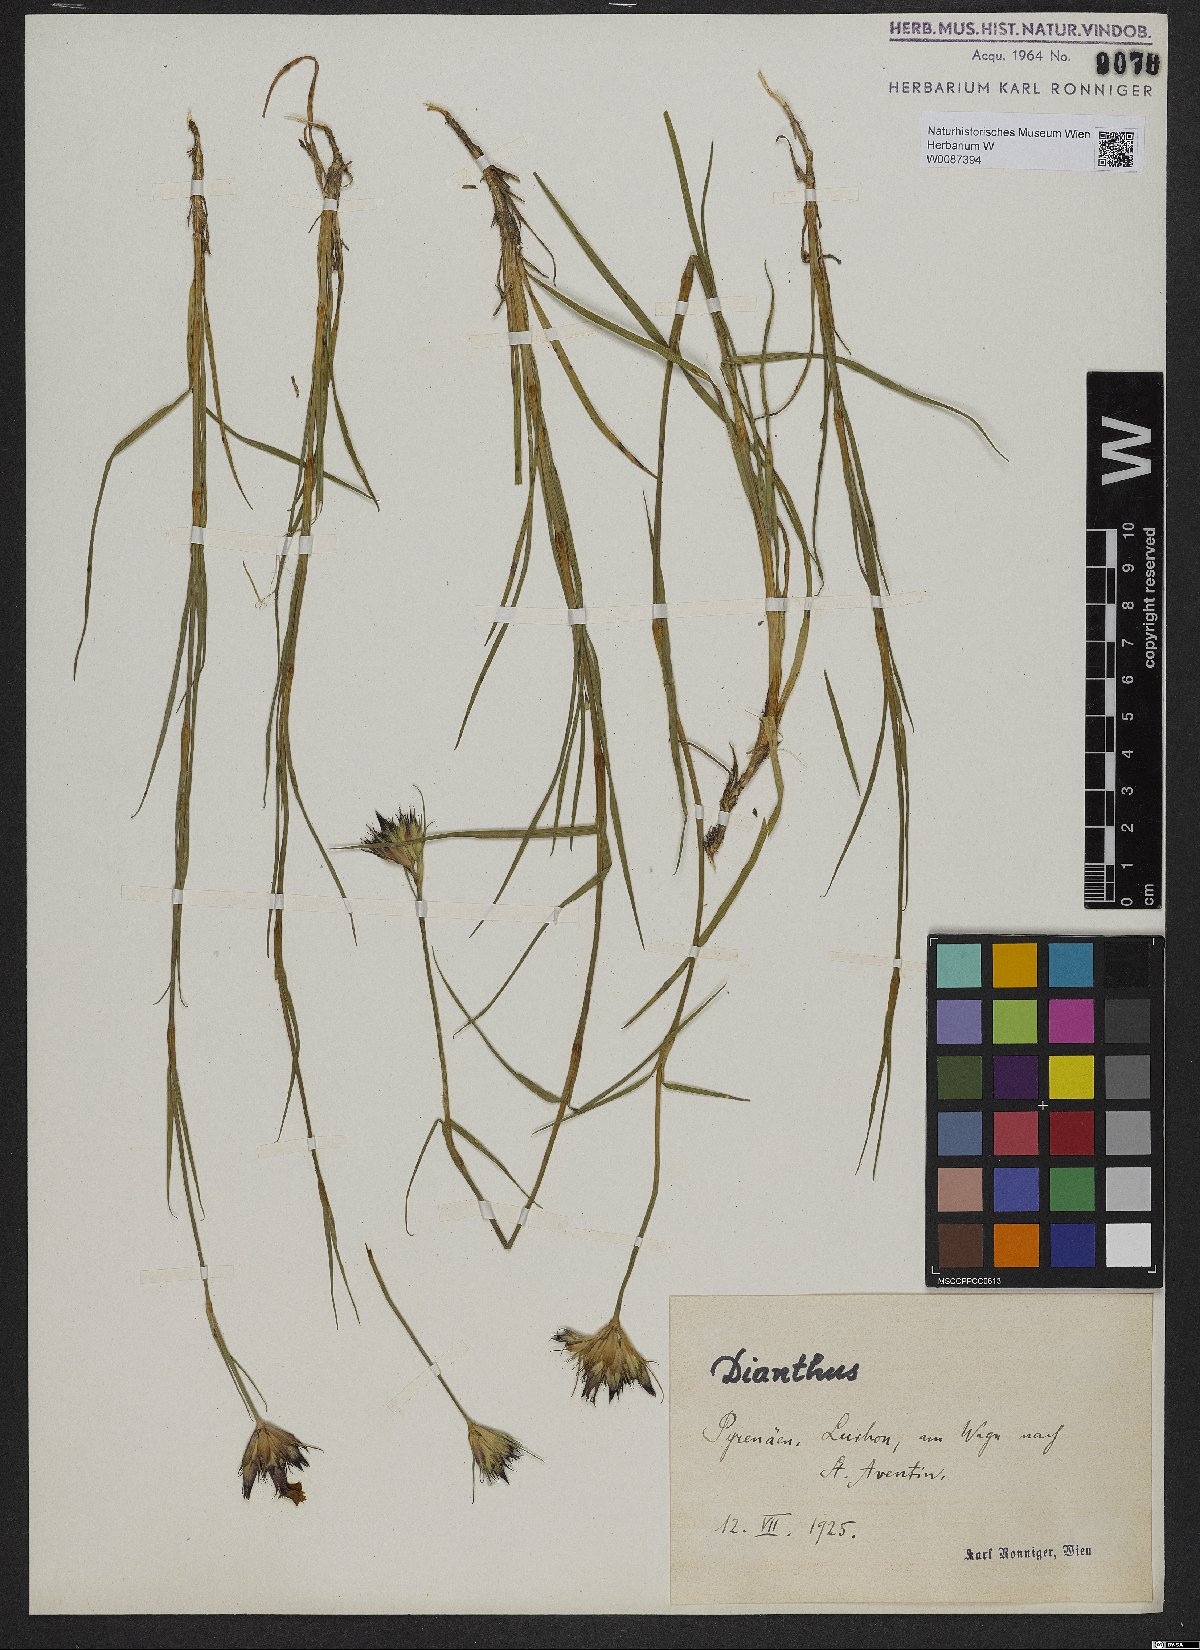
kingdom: Plantae
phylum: Tracheophyta
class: Magnoliopsida
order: Caryophyllales
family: Caryophyllaceae
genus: Dianthus
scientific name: Dianthus
